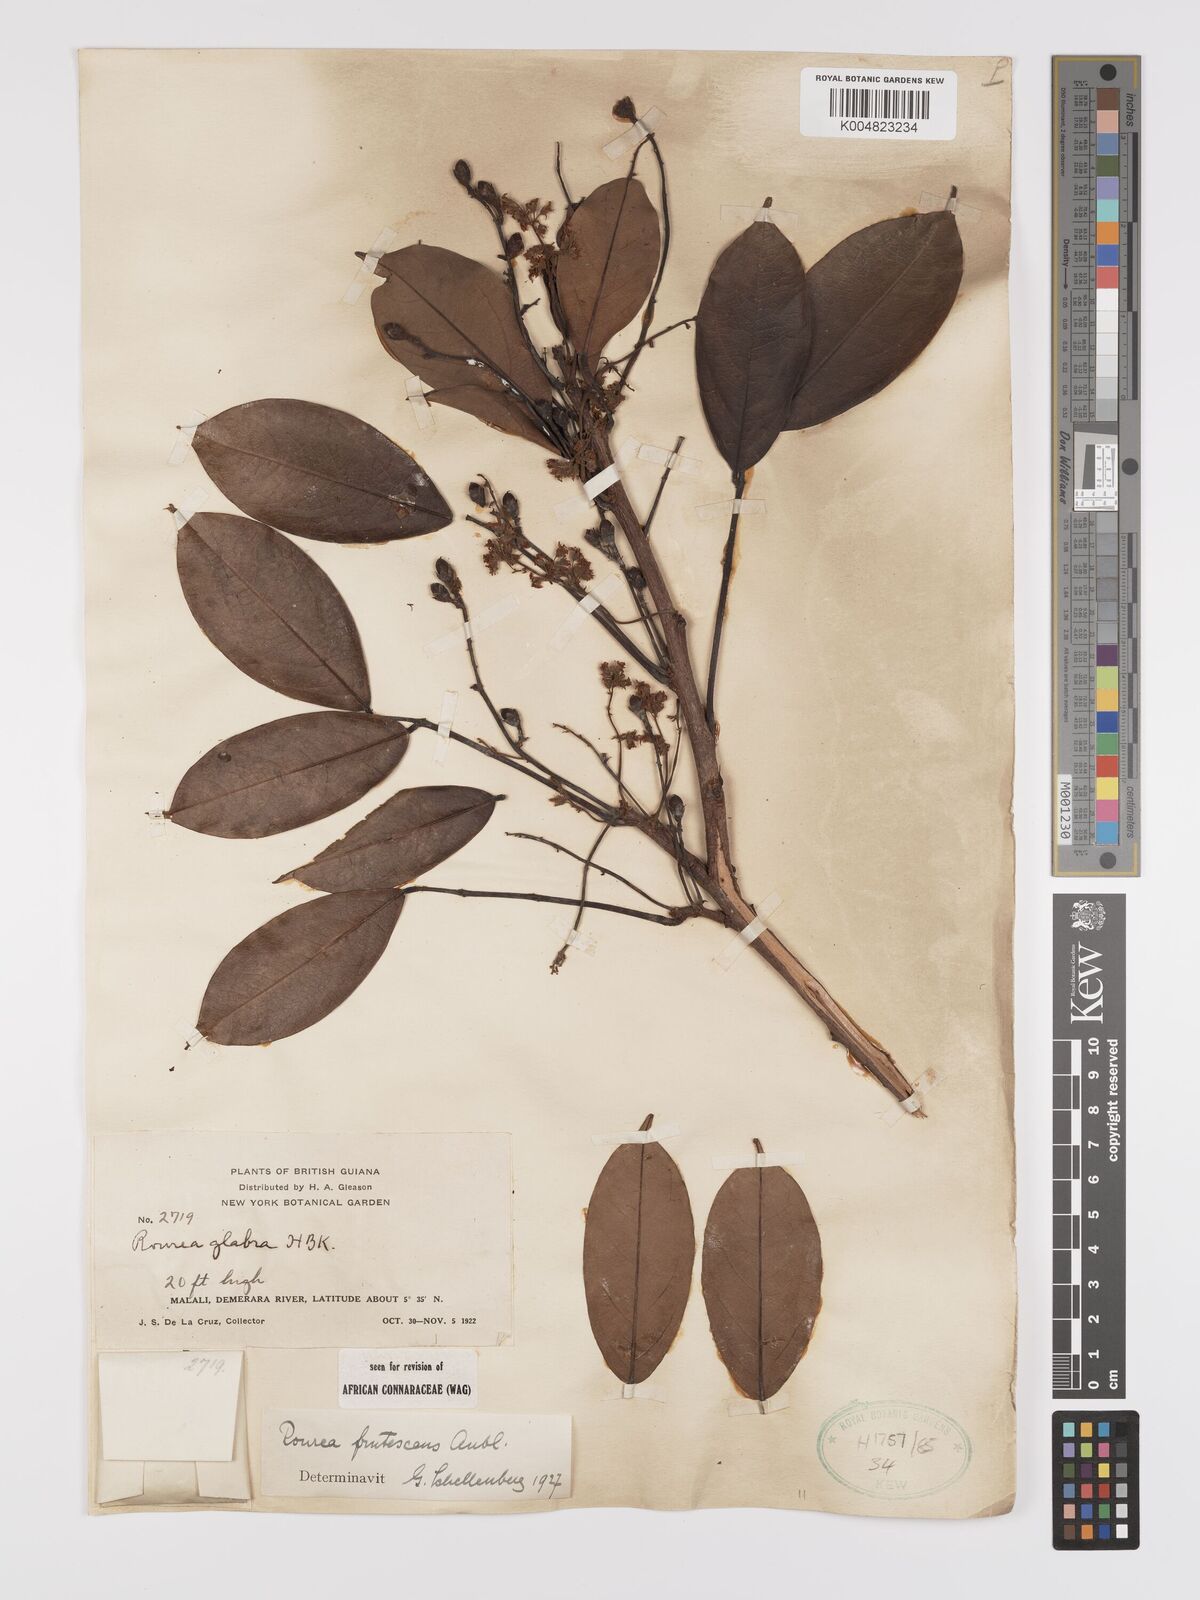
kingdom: Plantae
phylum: Tracheophyta
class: Magnoliopsida
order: Oxalidales
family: Connaraceae
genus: Rourea
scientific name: Rourea frutescens
